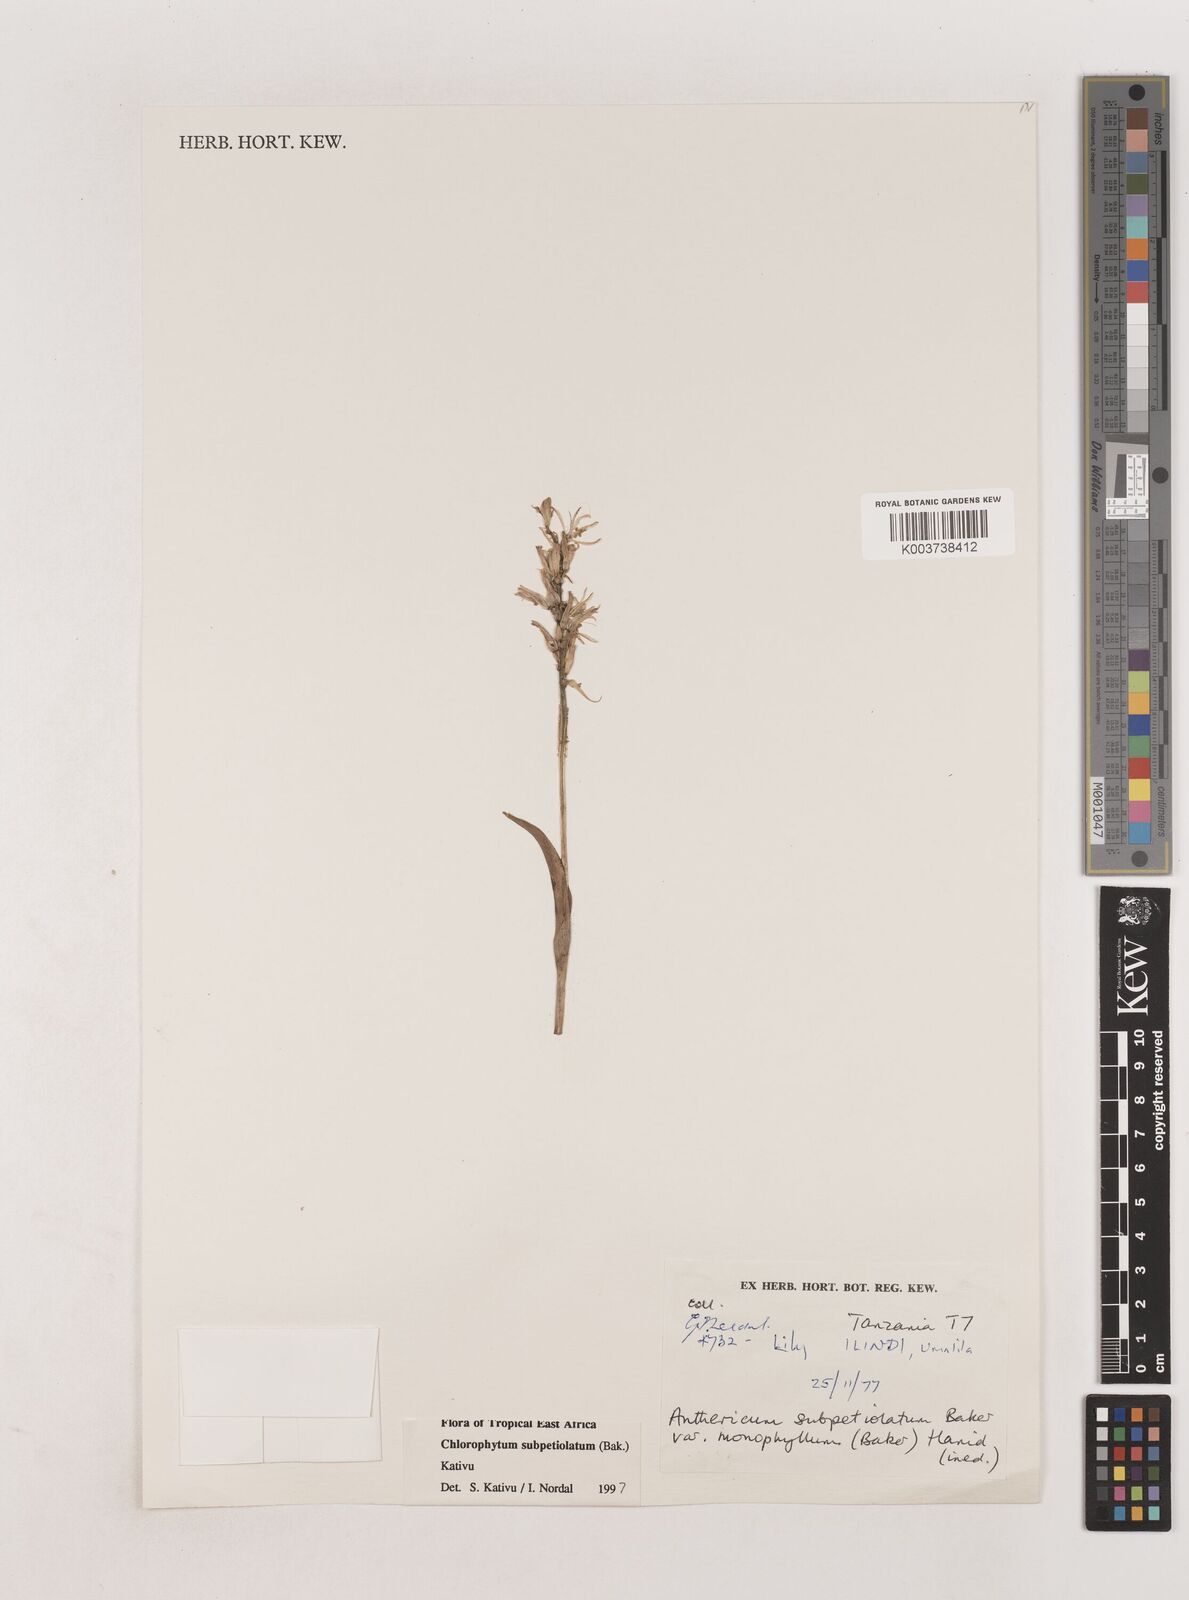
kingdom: Plantae
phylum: Tracheophyta
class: Liliopsida
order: Asparagales
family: Asparagaceae
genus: Chlorophytum
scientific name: Chlorophytum subpetiolatum
